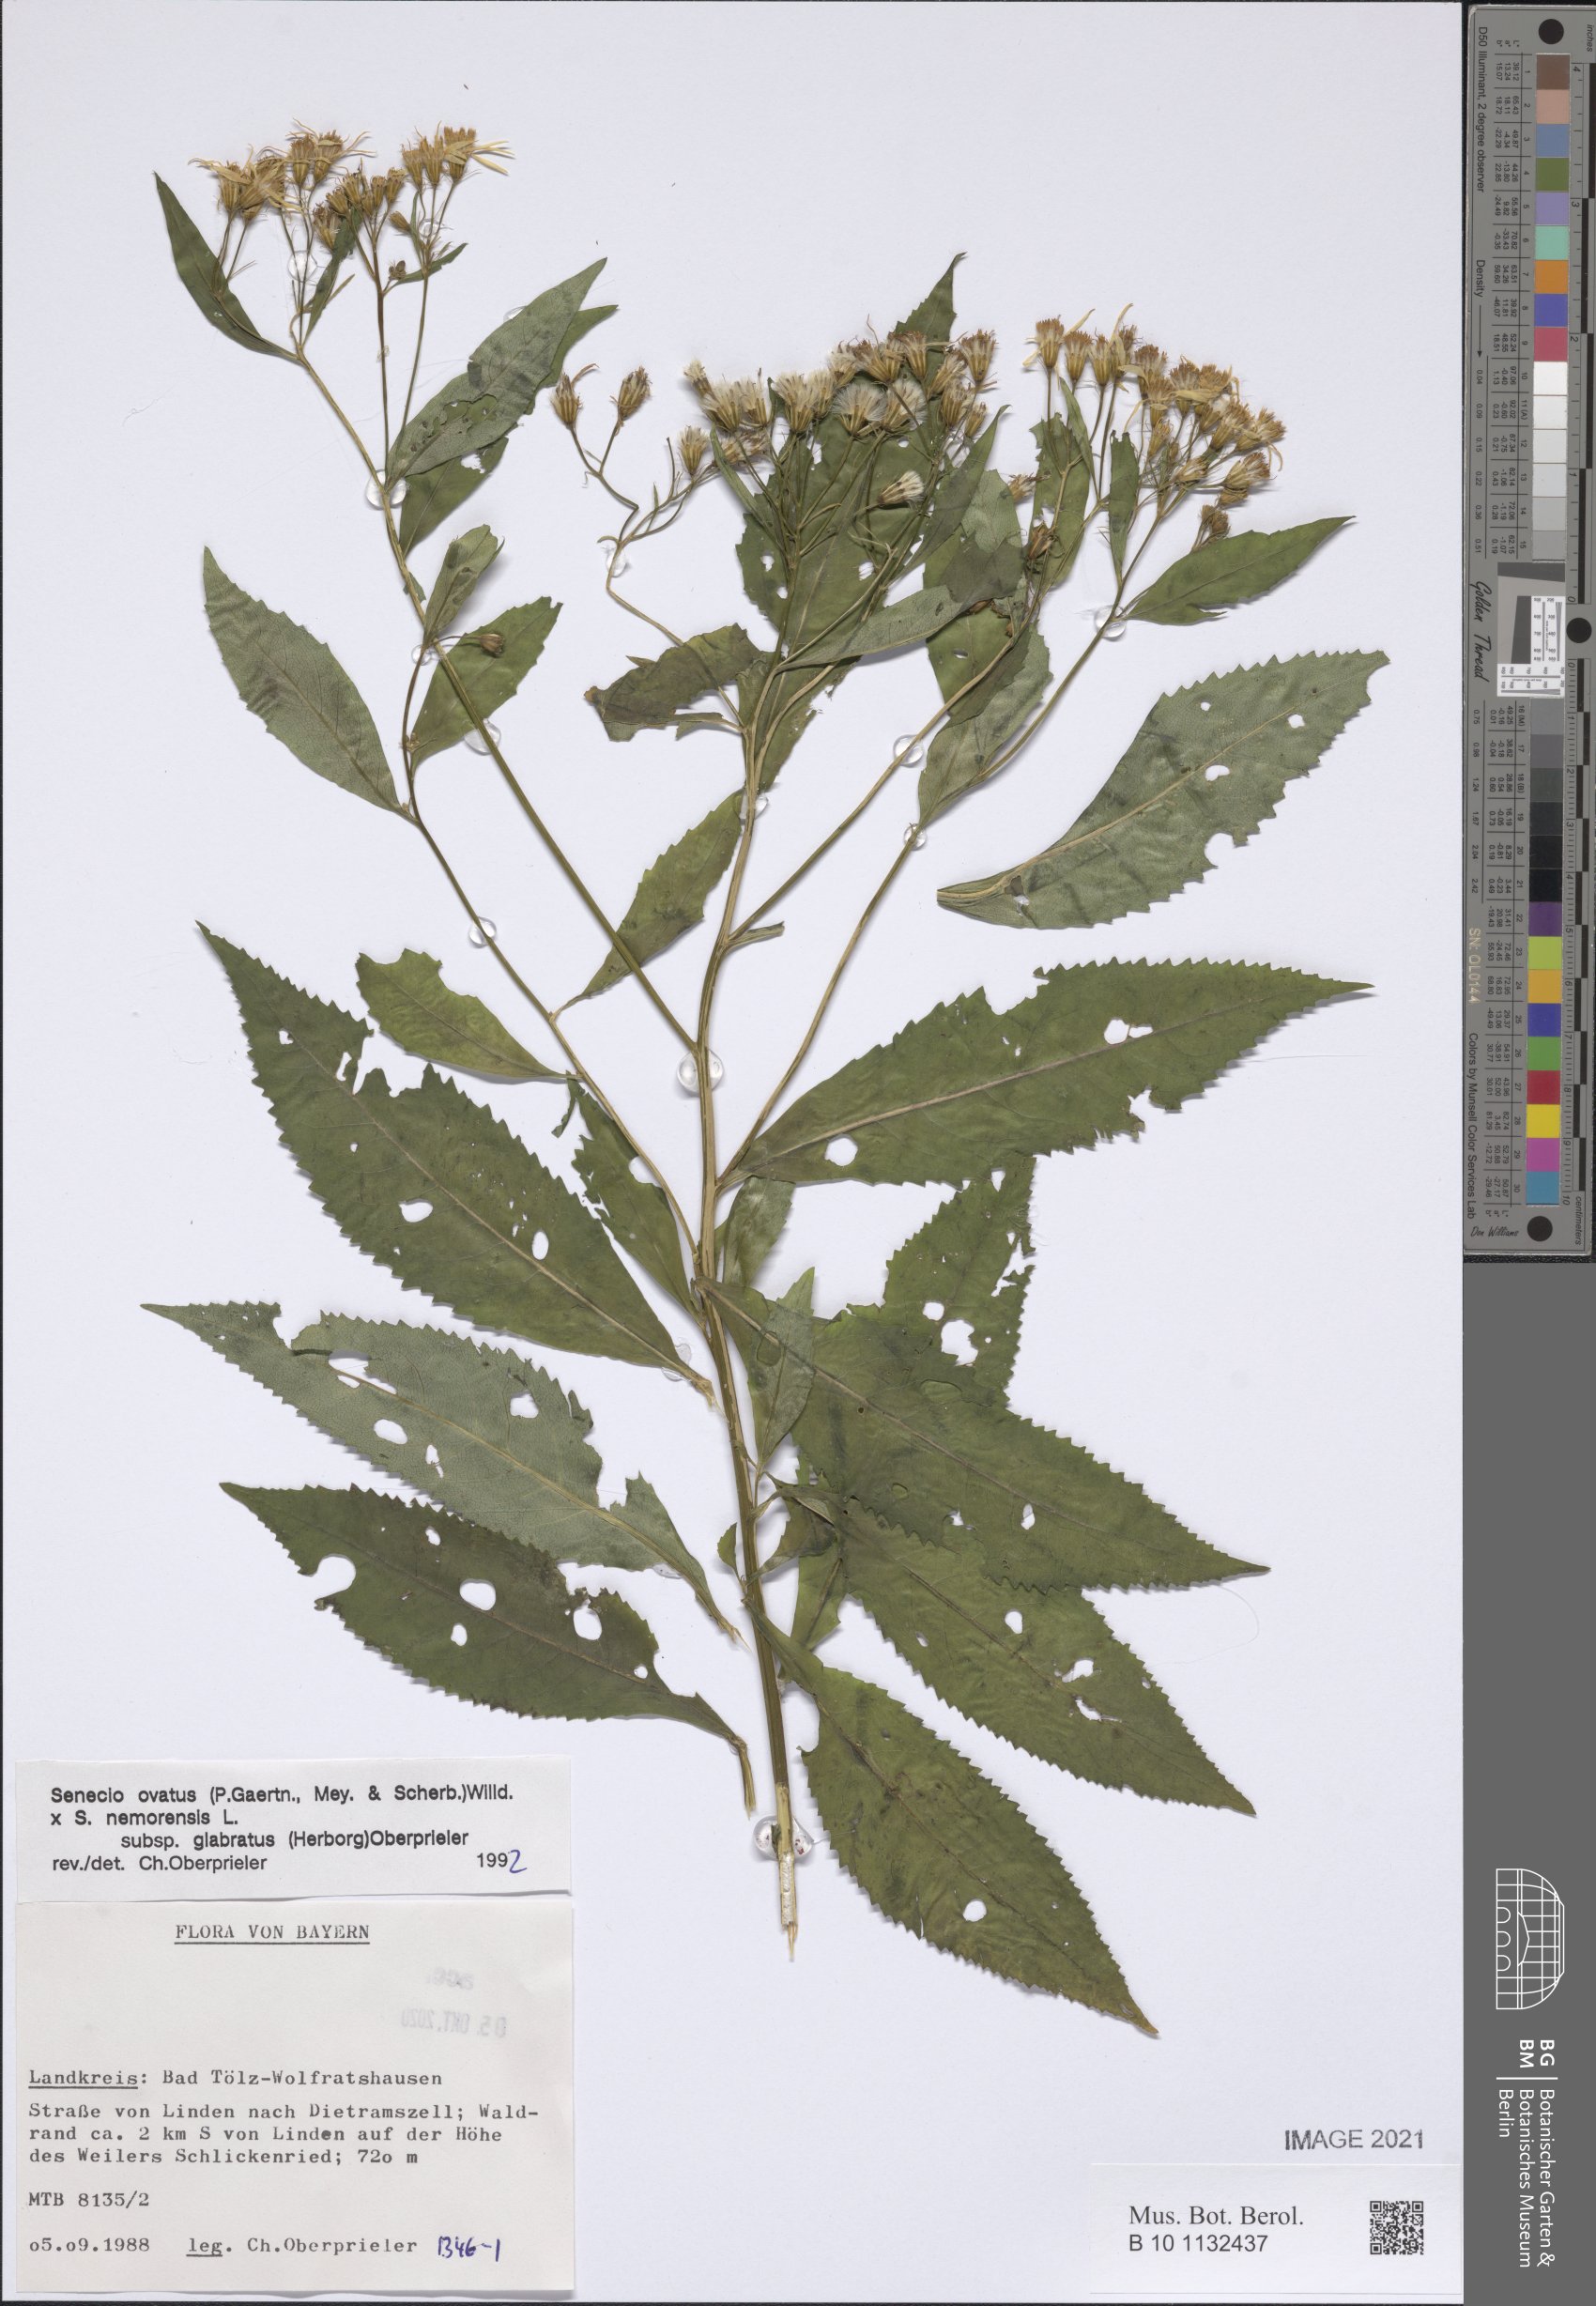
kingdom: Plantae
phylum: Tracheophyta
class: Magnoliopsida
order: Asterales
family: Asteraceae
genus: Senecio
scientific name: Senecio ovatus
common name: Wood ragwort
